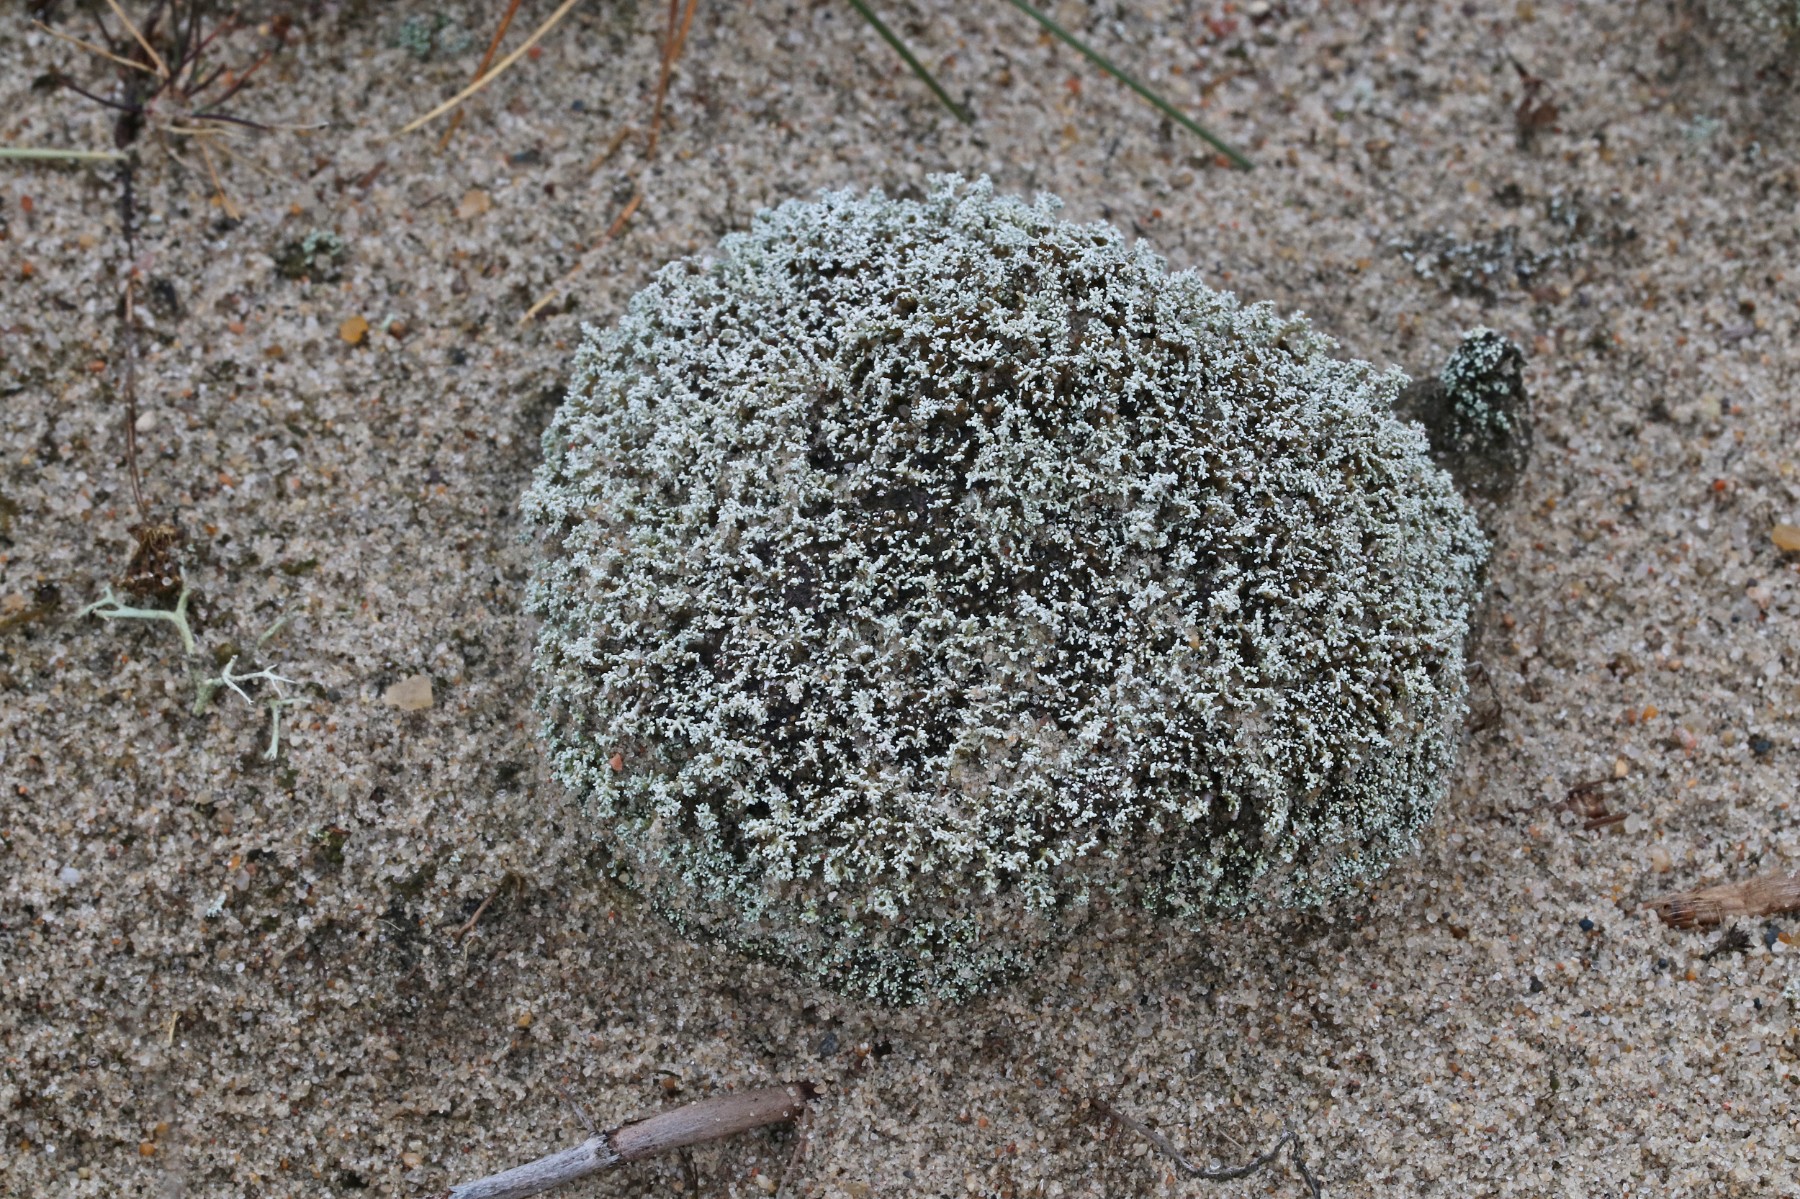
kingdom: Fungi
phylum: Ascomycota
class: Lecanoromycetes
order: Lecanorales
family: Stereocaulaceae
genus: Stereocaulon
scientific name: Stereocaulon condensatum
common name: lav korallav
